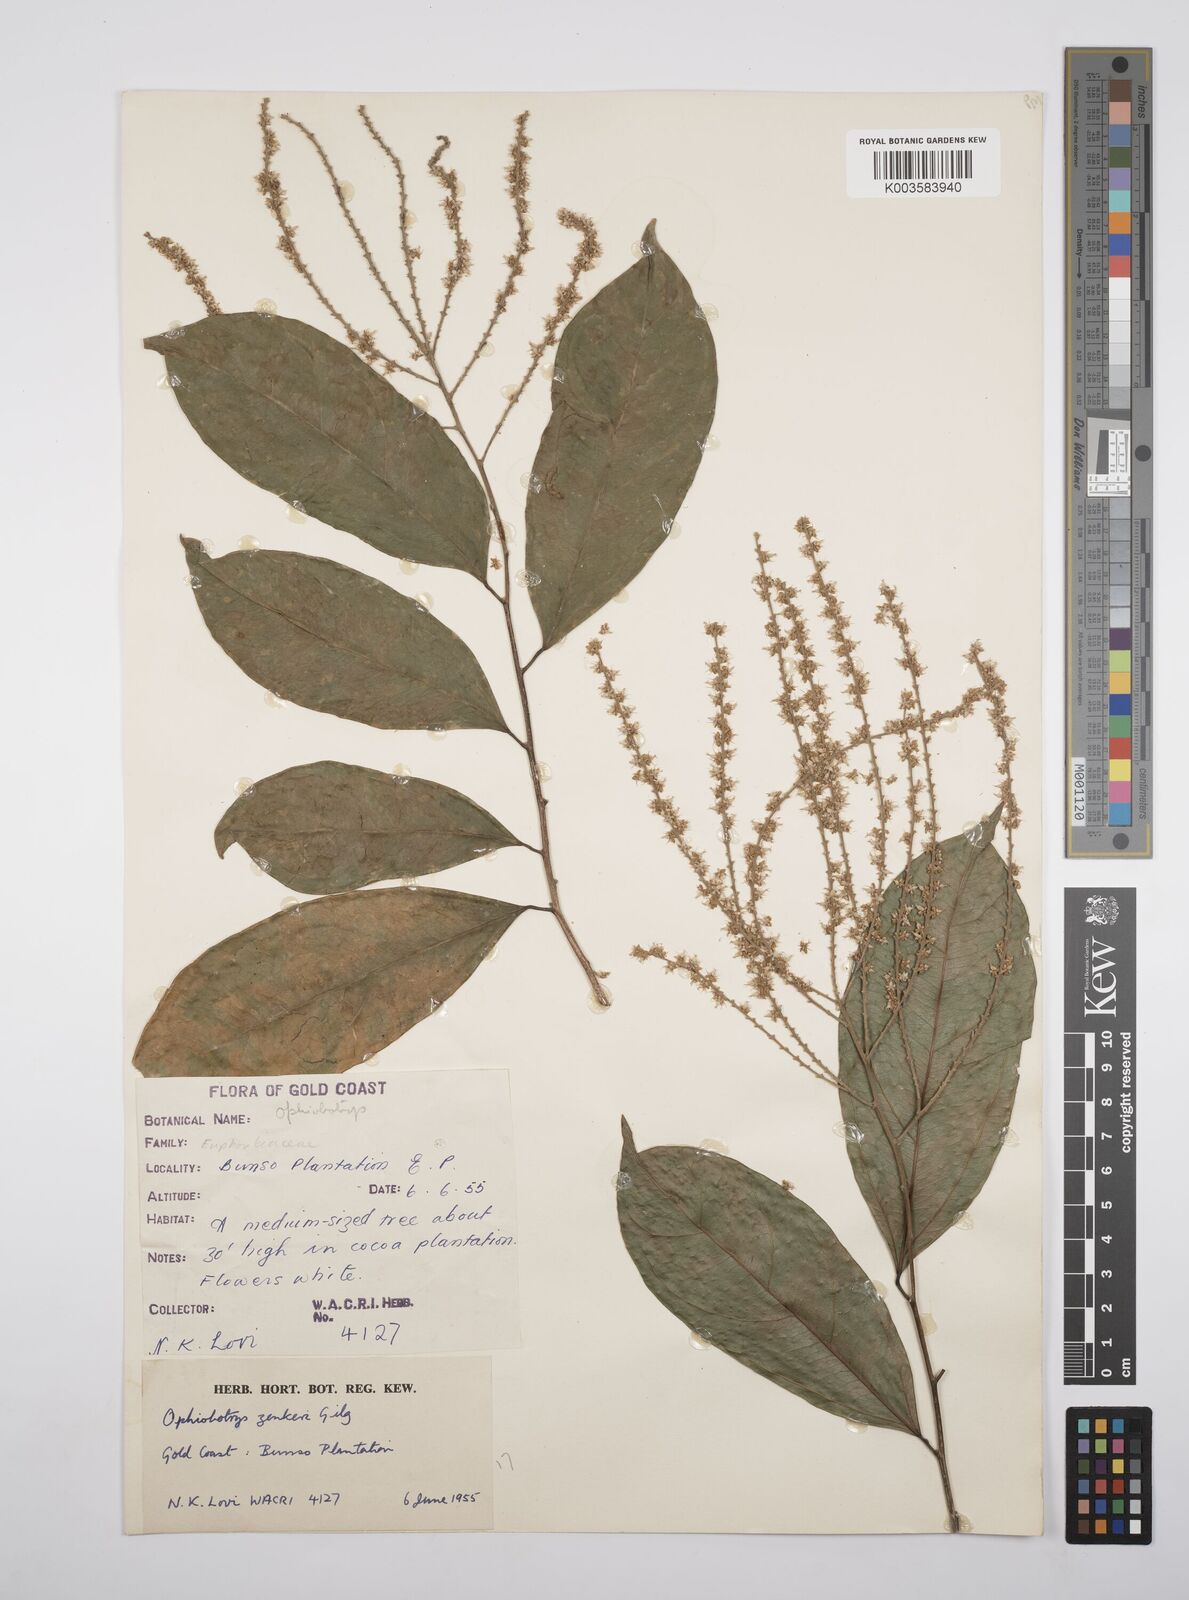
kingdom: Plantae
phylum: Tracheophyta
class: Magnoliopsida
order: Malpighiales
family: Salicaceae
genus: Ophiobotrys
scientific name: Ophiobotrys zenkeri
